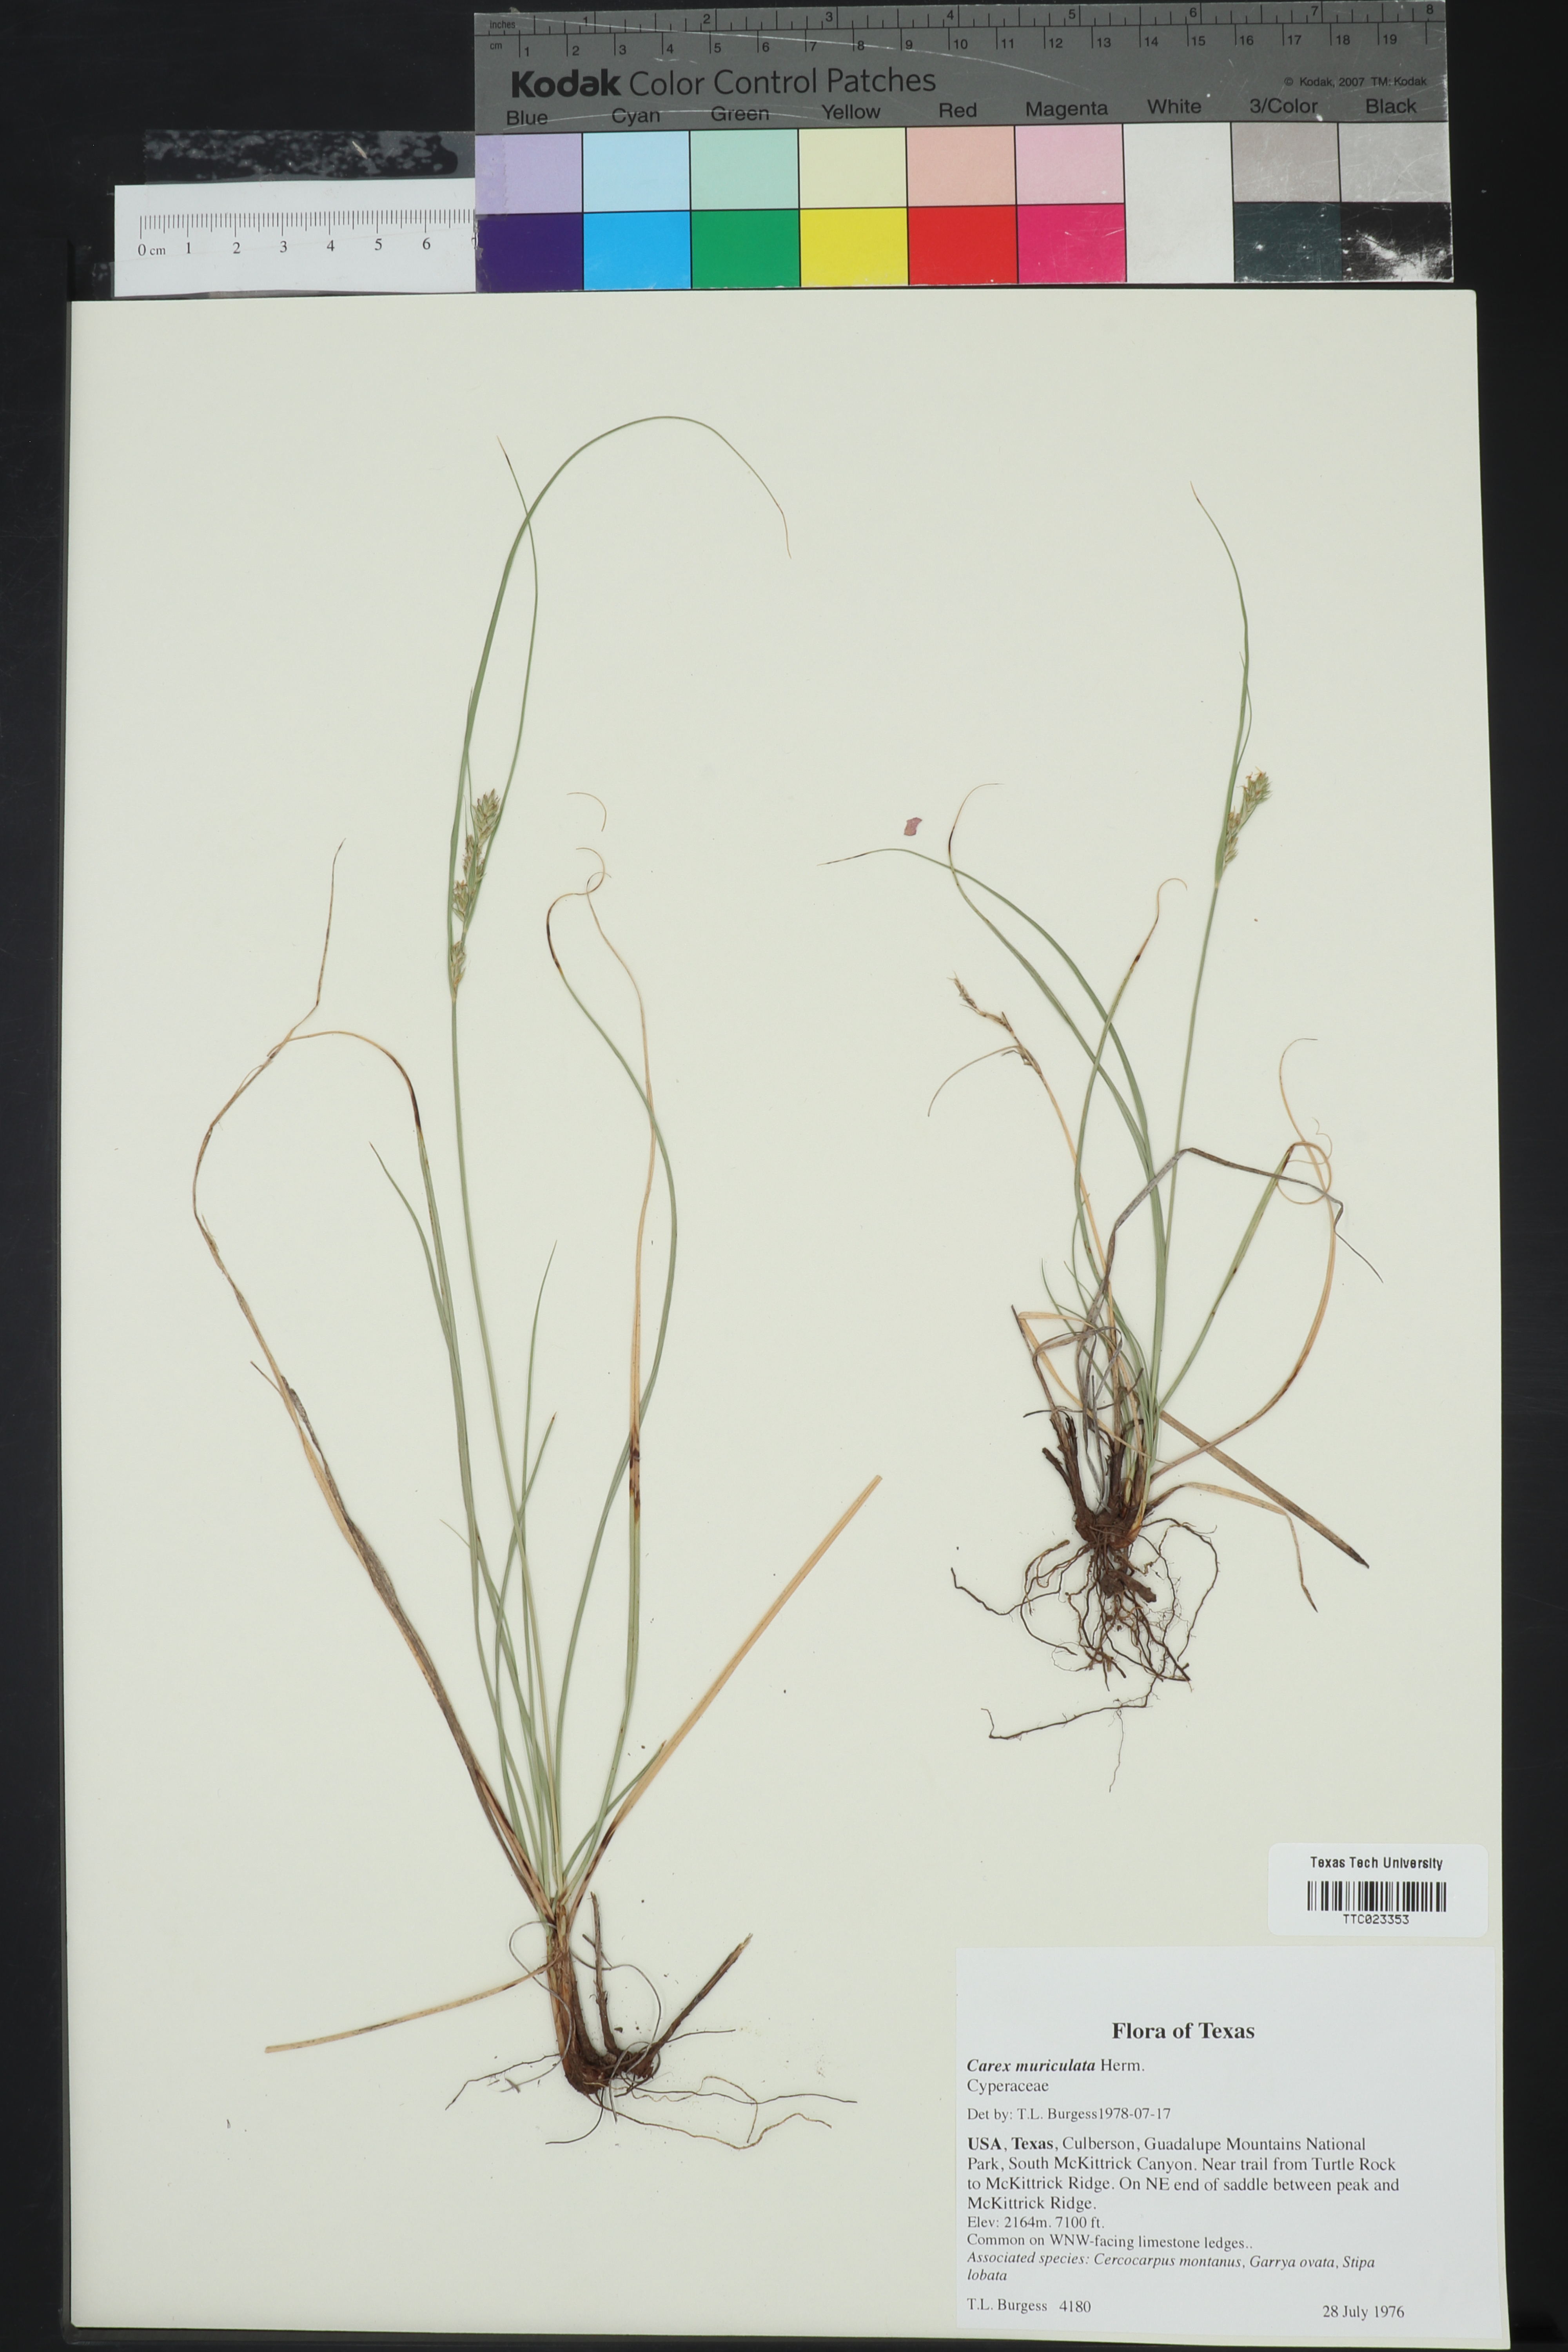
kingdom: Plantae
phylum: Tracheophyta
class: Liliopsida
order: Poales
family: Cyperaceae
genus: Carex
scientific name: Carex muriculata
